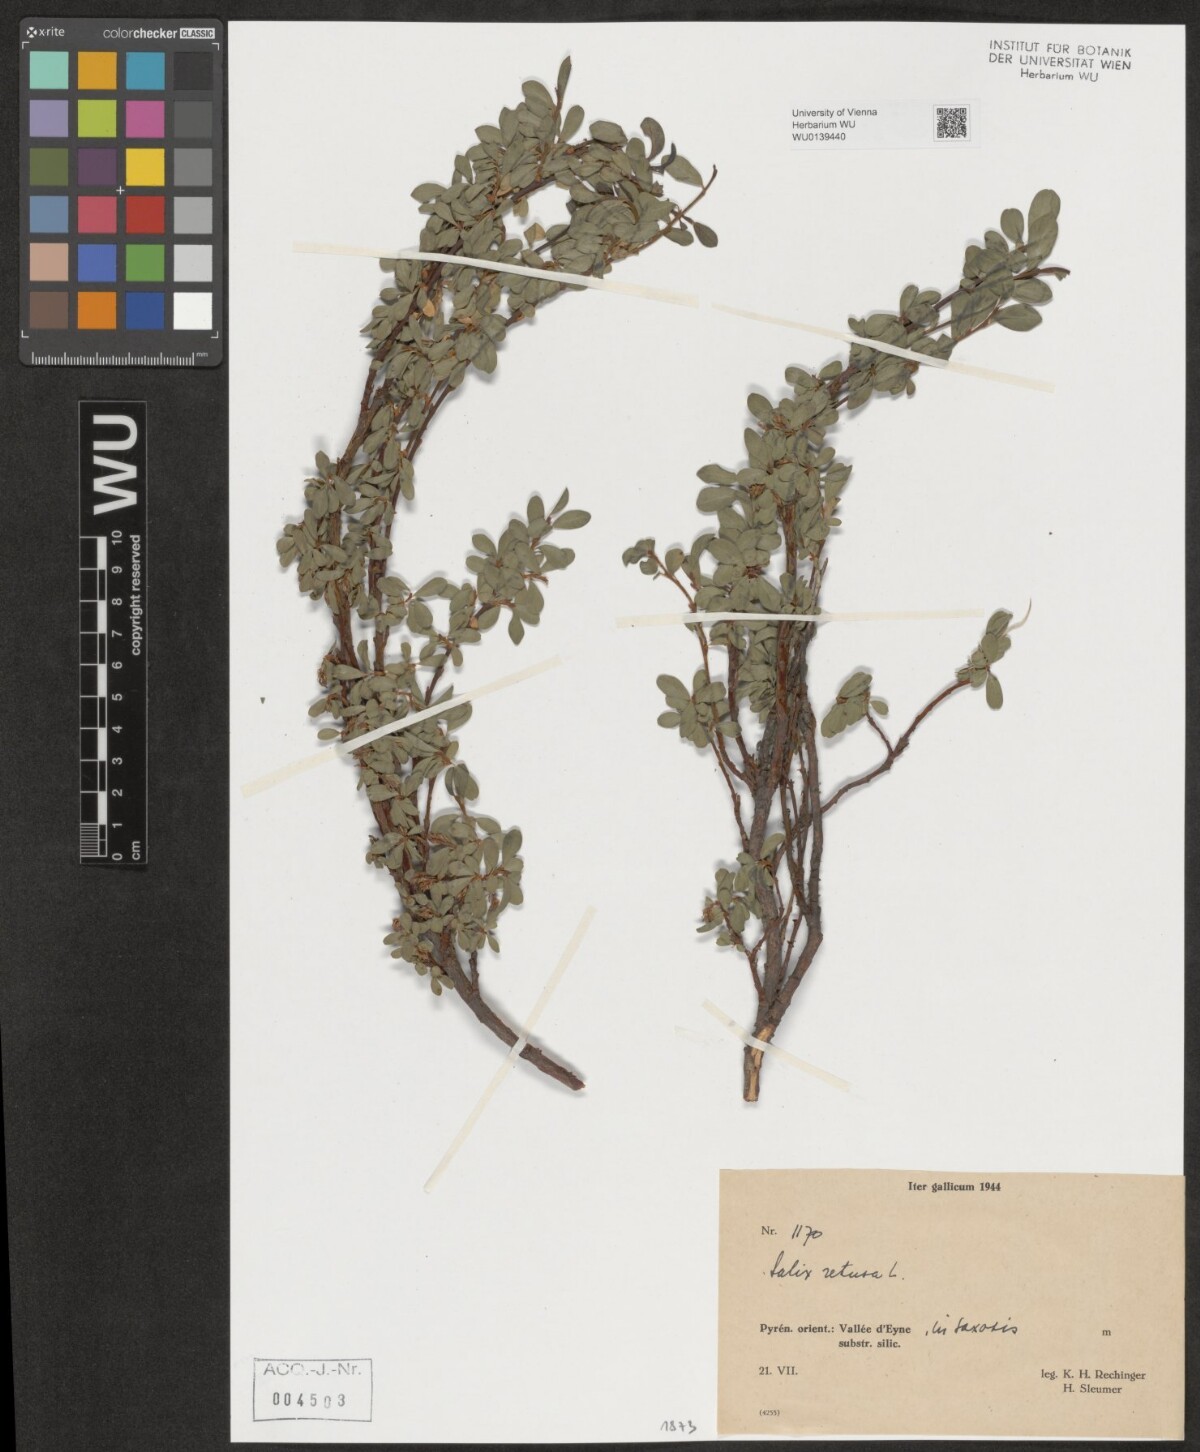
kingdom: Plantae
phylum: Tracheophyta
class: Magnoliopsida
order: Malpighiales
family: Salicaceae
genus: Salix
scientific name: Salix retusa
